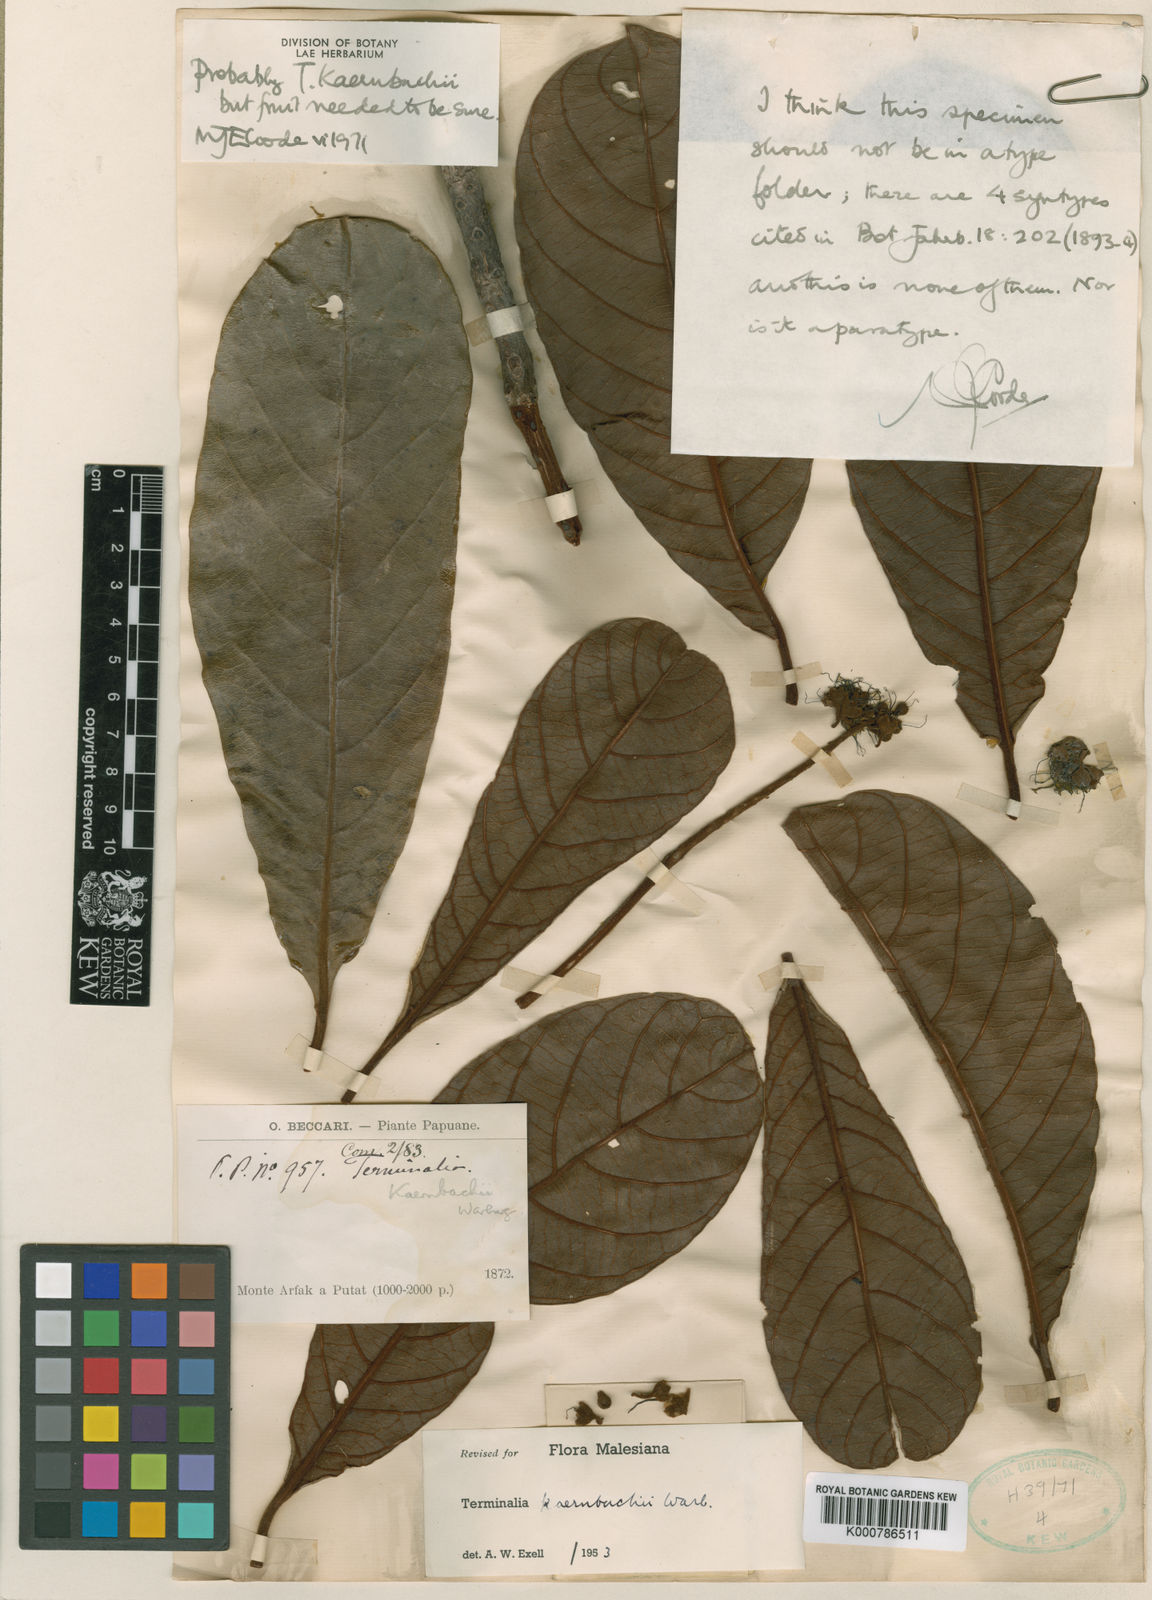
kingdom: Plantae
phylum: Tracheophyta
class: Magnoliopsida
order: Myrtales
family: Combretaceae
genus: Terminalia
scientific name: Terminalia kaernbachii
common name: Okari-nut
